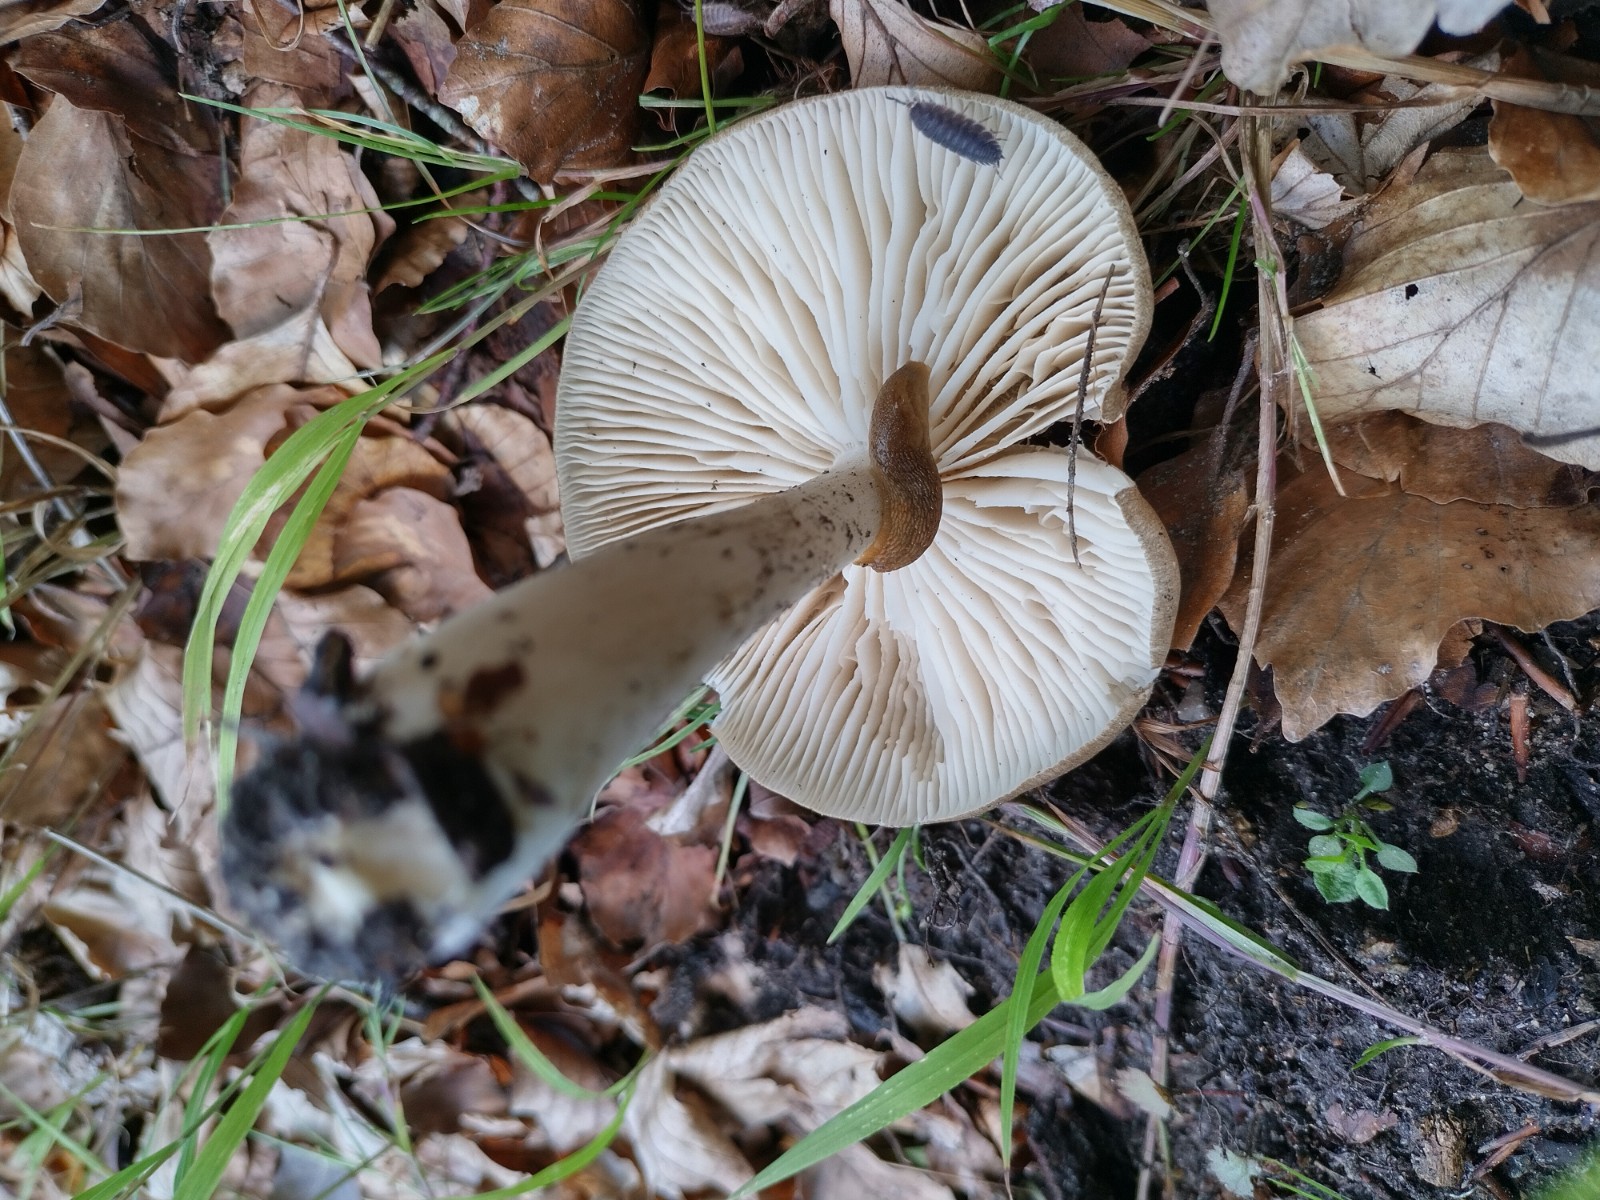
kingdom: Fungi
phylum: Basidiomycota
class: Agaricomycetes
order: Agaricales
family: Tricholomataceae
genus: Megacollybia
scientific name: Megacollybia platyphylla
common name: bredbladet væbnerhat
